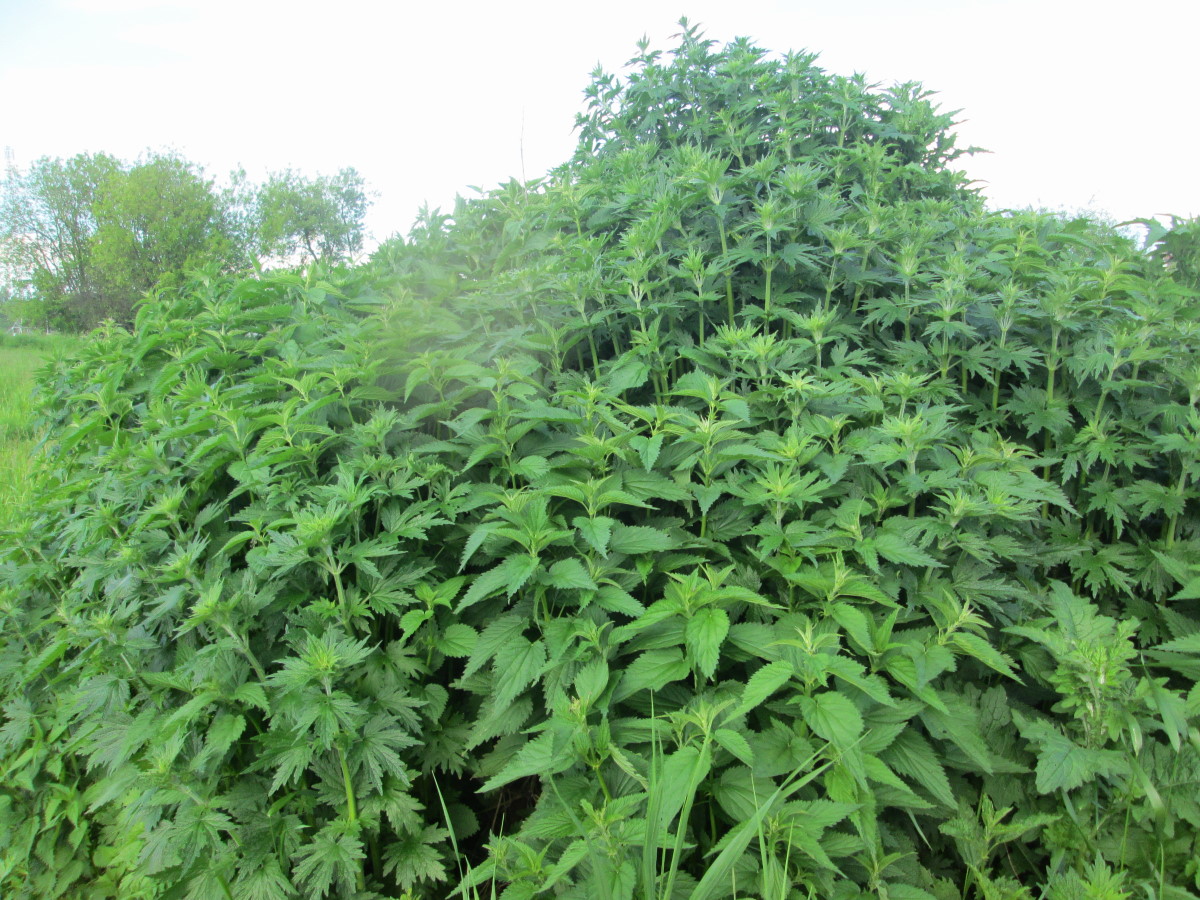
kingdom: Plantae
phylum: Tracheophyta
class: Magnoliopsida
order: Lamiales
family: Lamiaceae
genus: Leonurus
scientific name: Leonurus quinquelobatus
